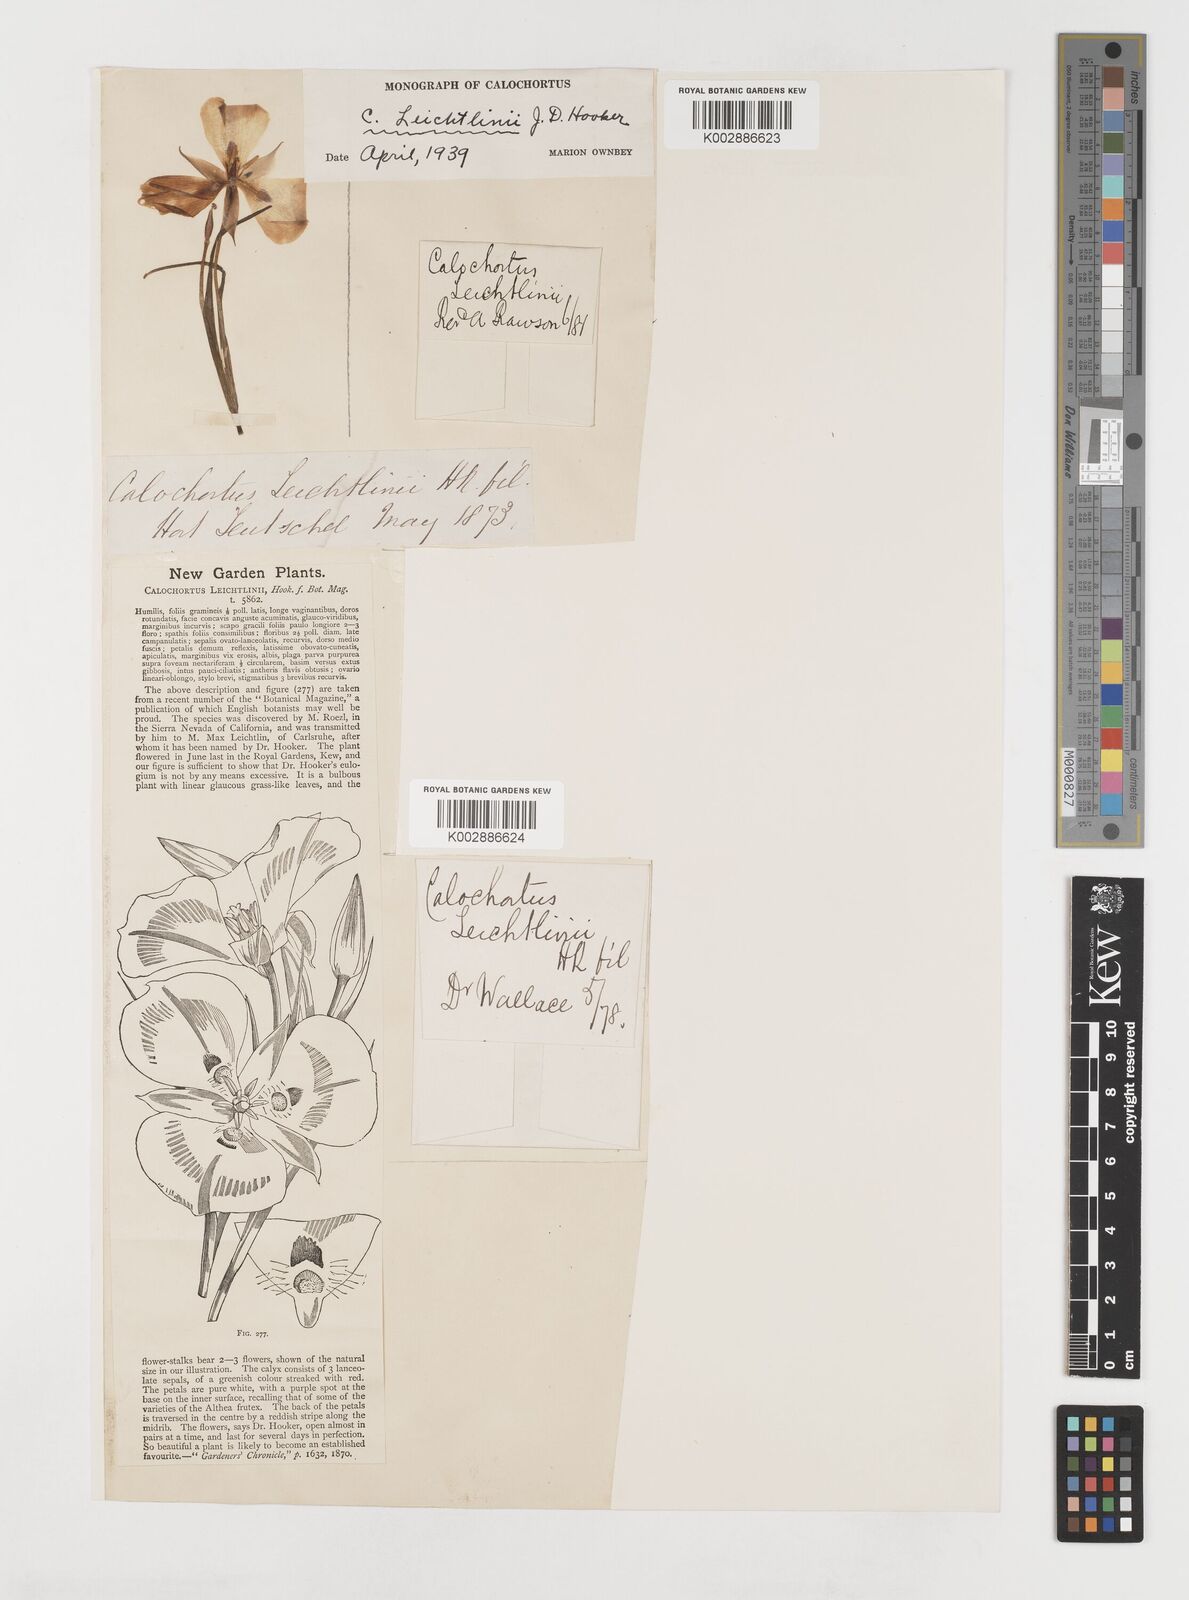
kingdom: Plantae
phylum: Tracheophyta
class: Liliopsida
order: Liliales
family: Liliaceae
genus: Calochortus
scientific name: Calochortus leichtlinii
